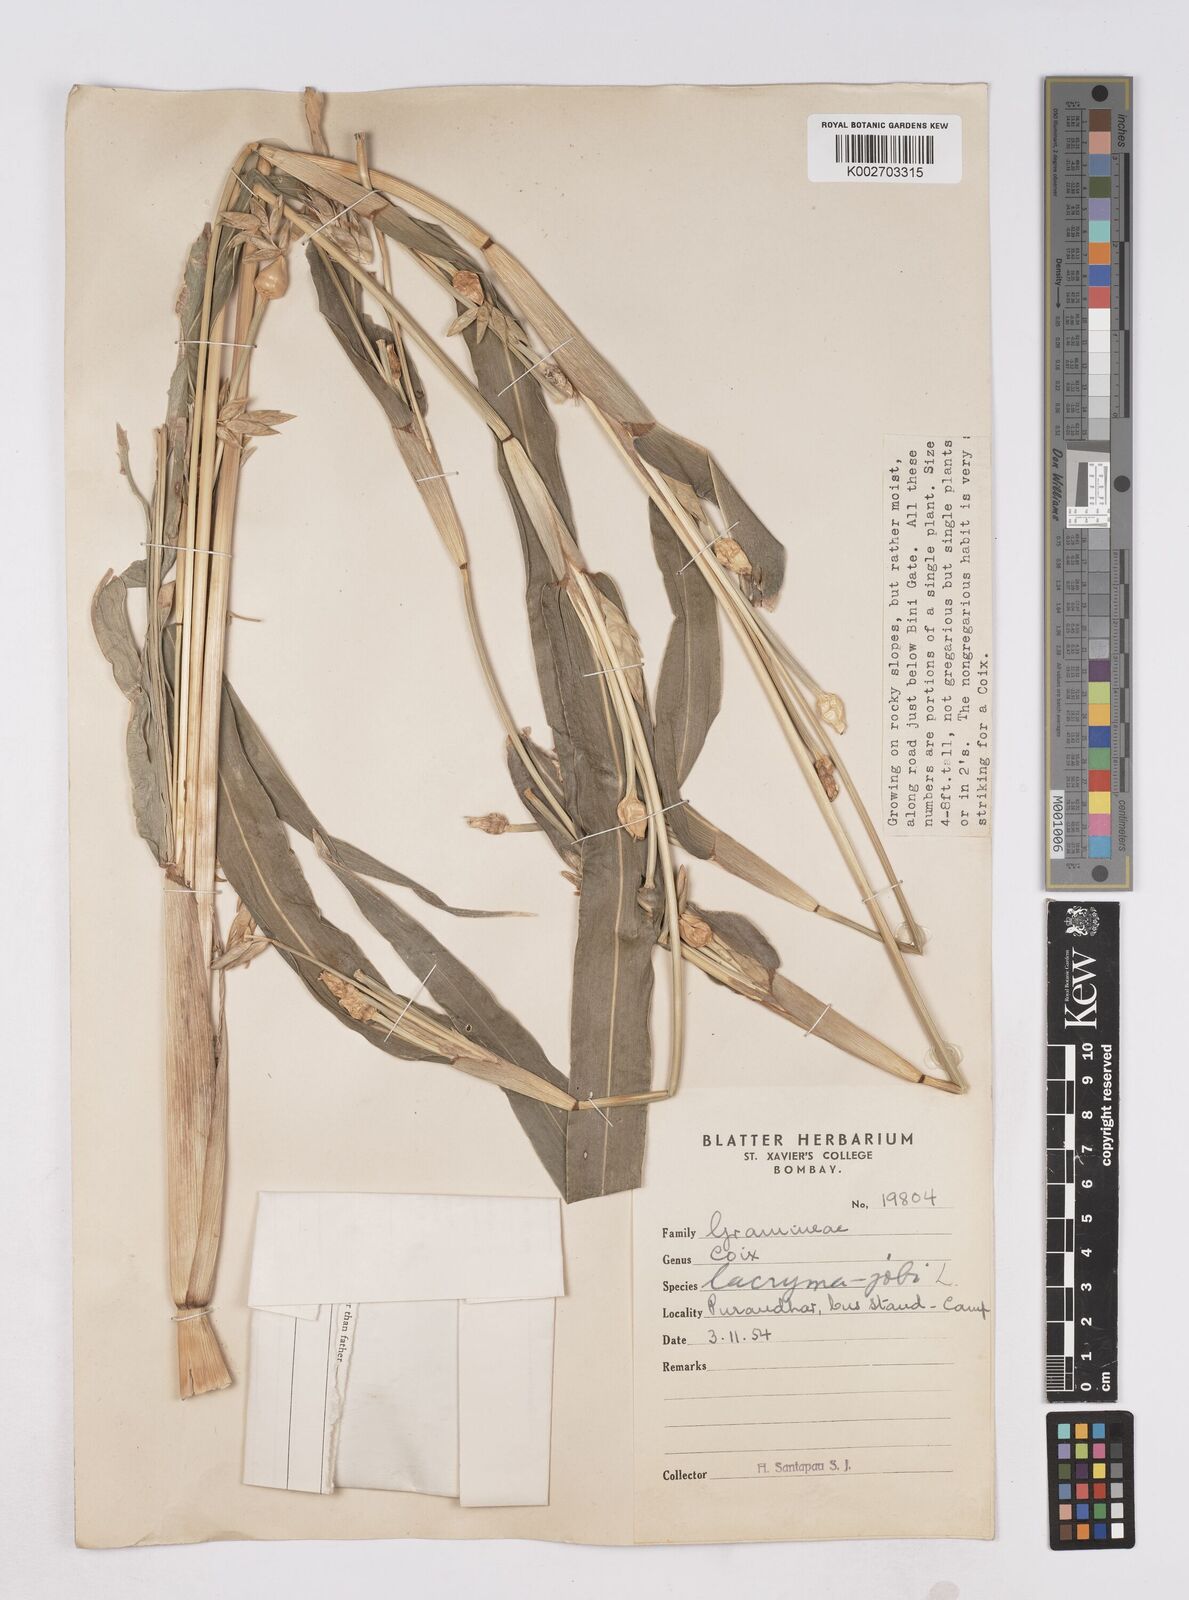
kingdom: Plantae
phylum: Tracheophyta
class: Liliopsida
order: Poales
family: Poaceae
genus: Coix
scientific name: Coix aquatica
